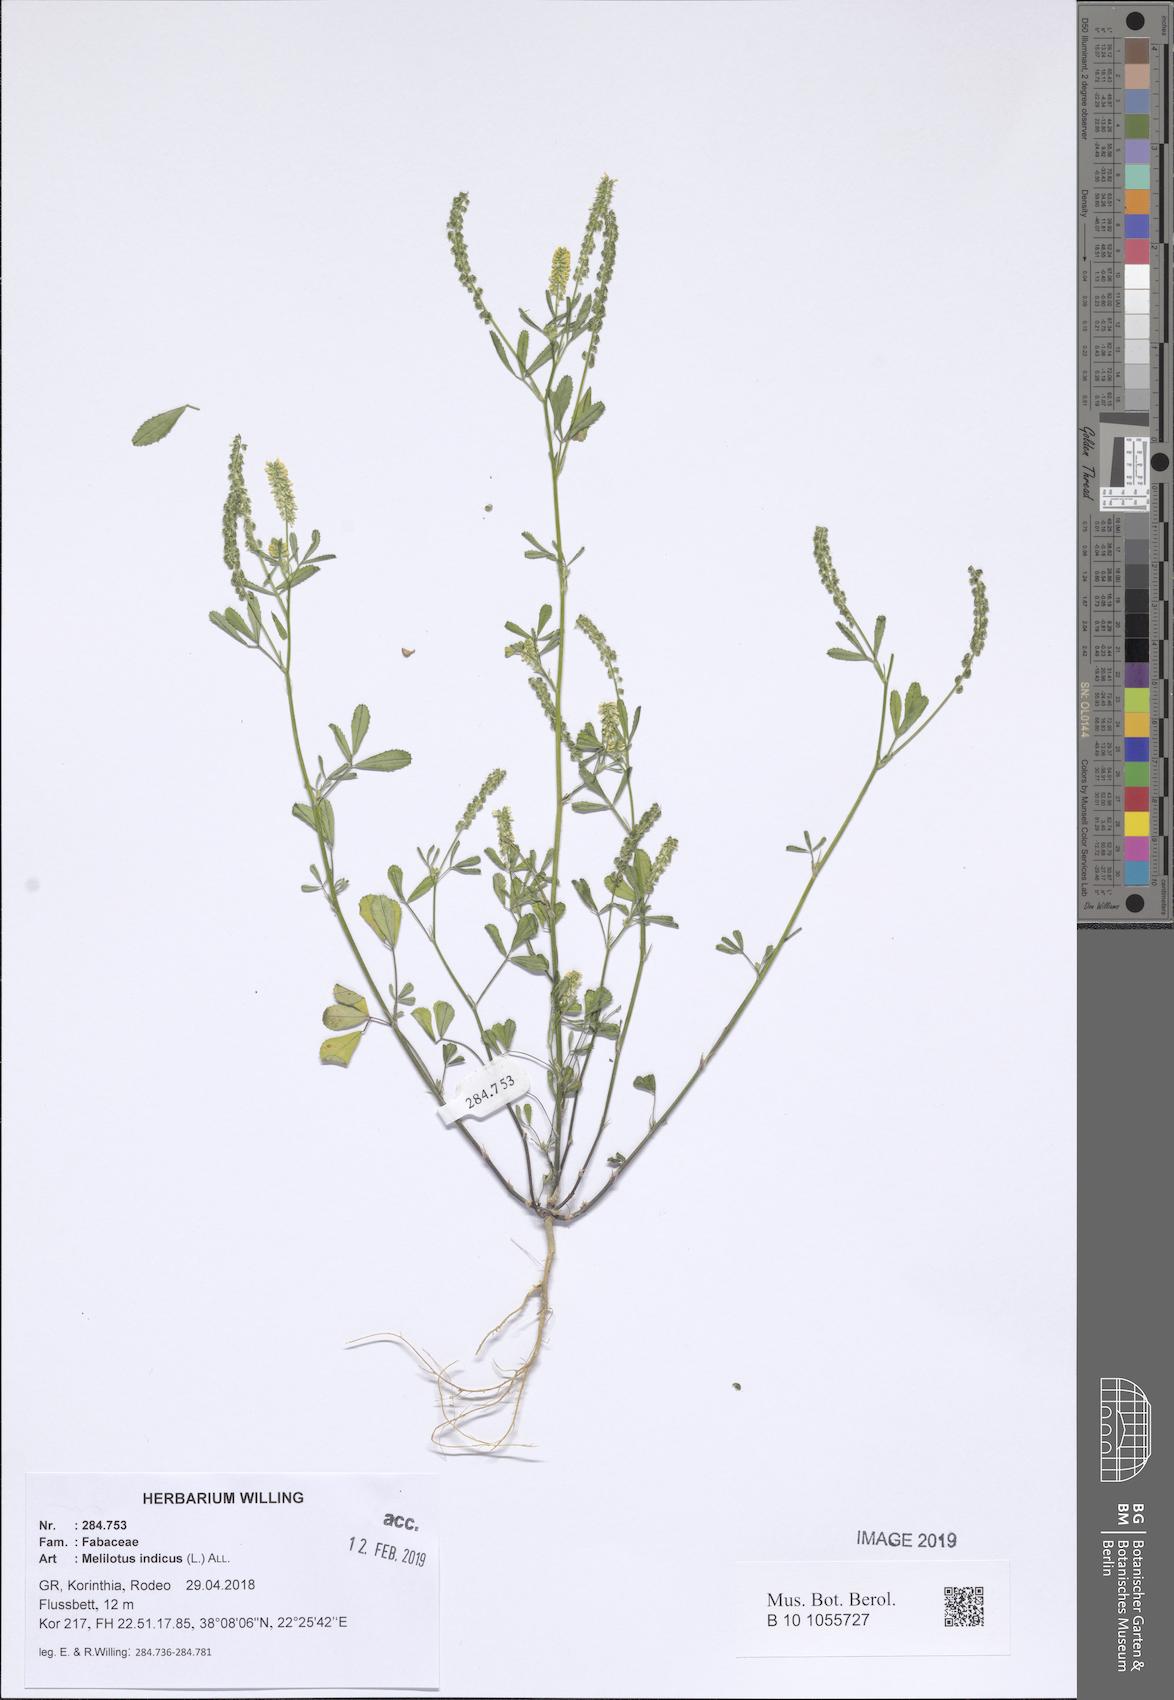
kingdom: Plantae
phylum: Tracheophyta
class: Magnoliopsida
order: Fabales
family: Fabaceae
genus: Melilotus
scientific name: Melilotus indicus
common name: Small melilot
